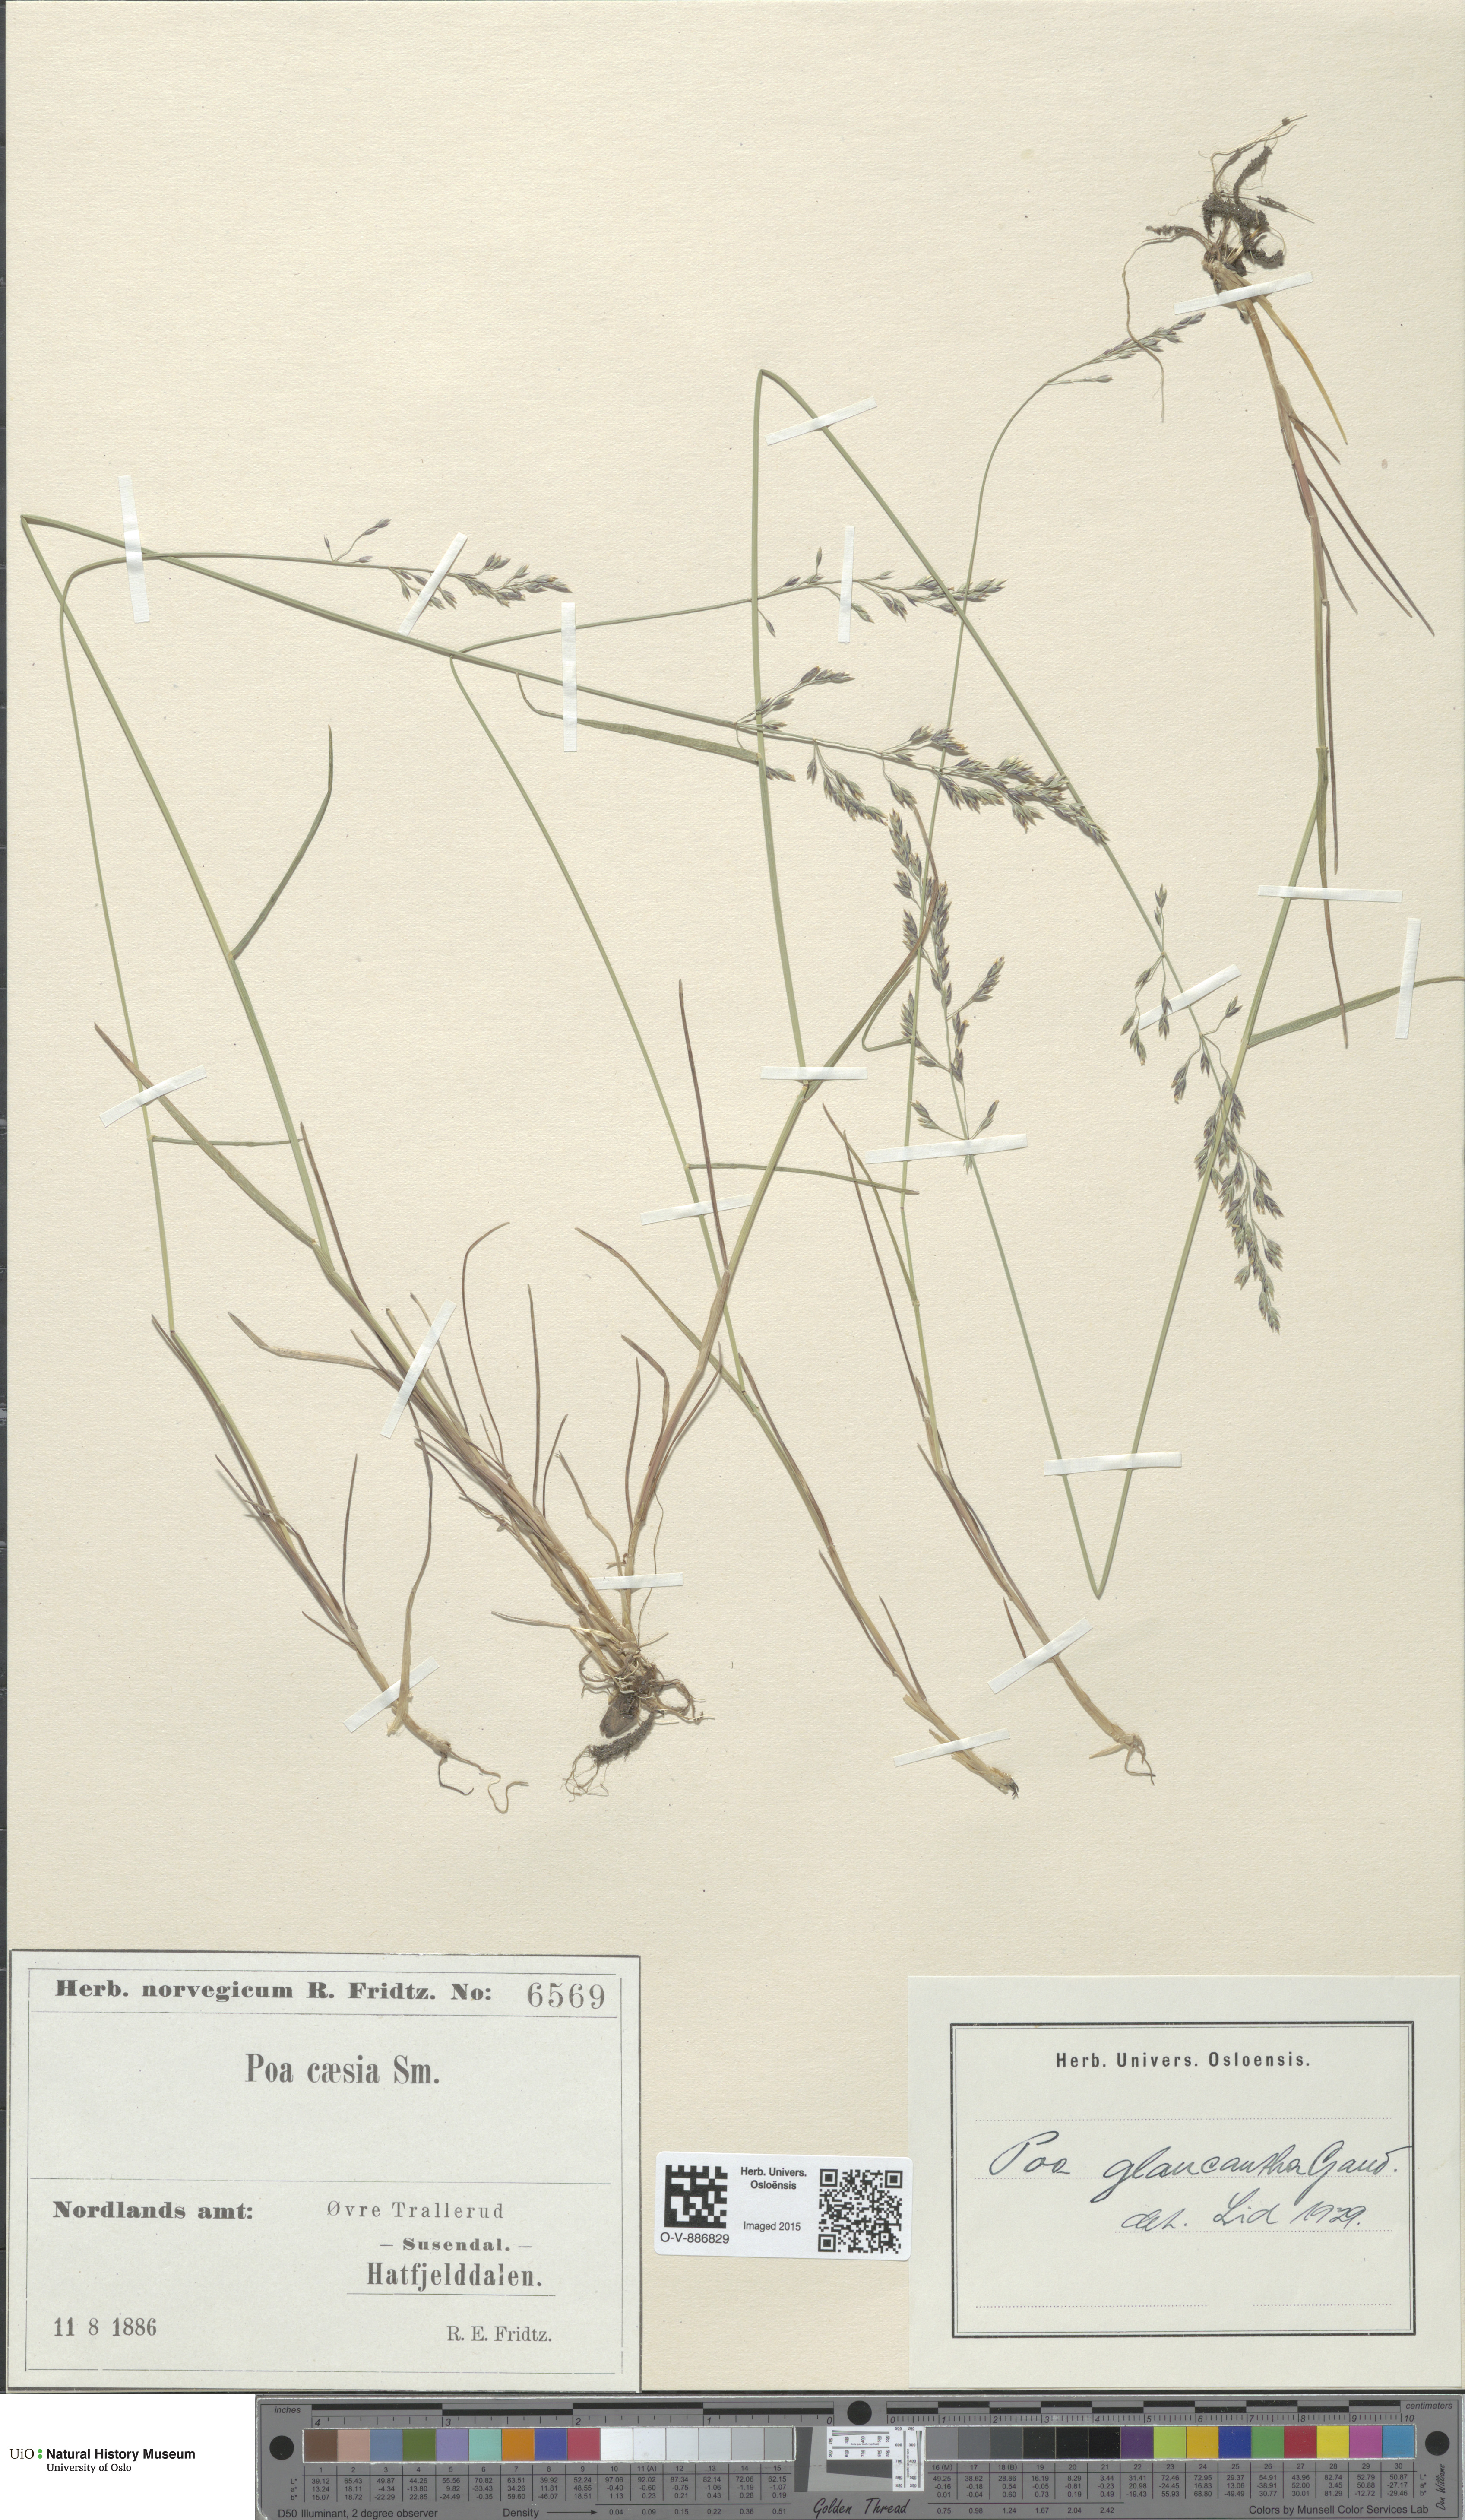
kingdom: Plantae
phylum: Tracheophyta
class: Liliopsida
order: Poales
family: Poaceae
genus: Poa
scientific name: Poa nemoralis
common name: Wood bluegrass
